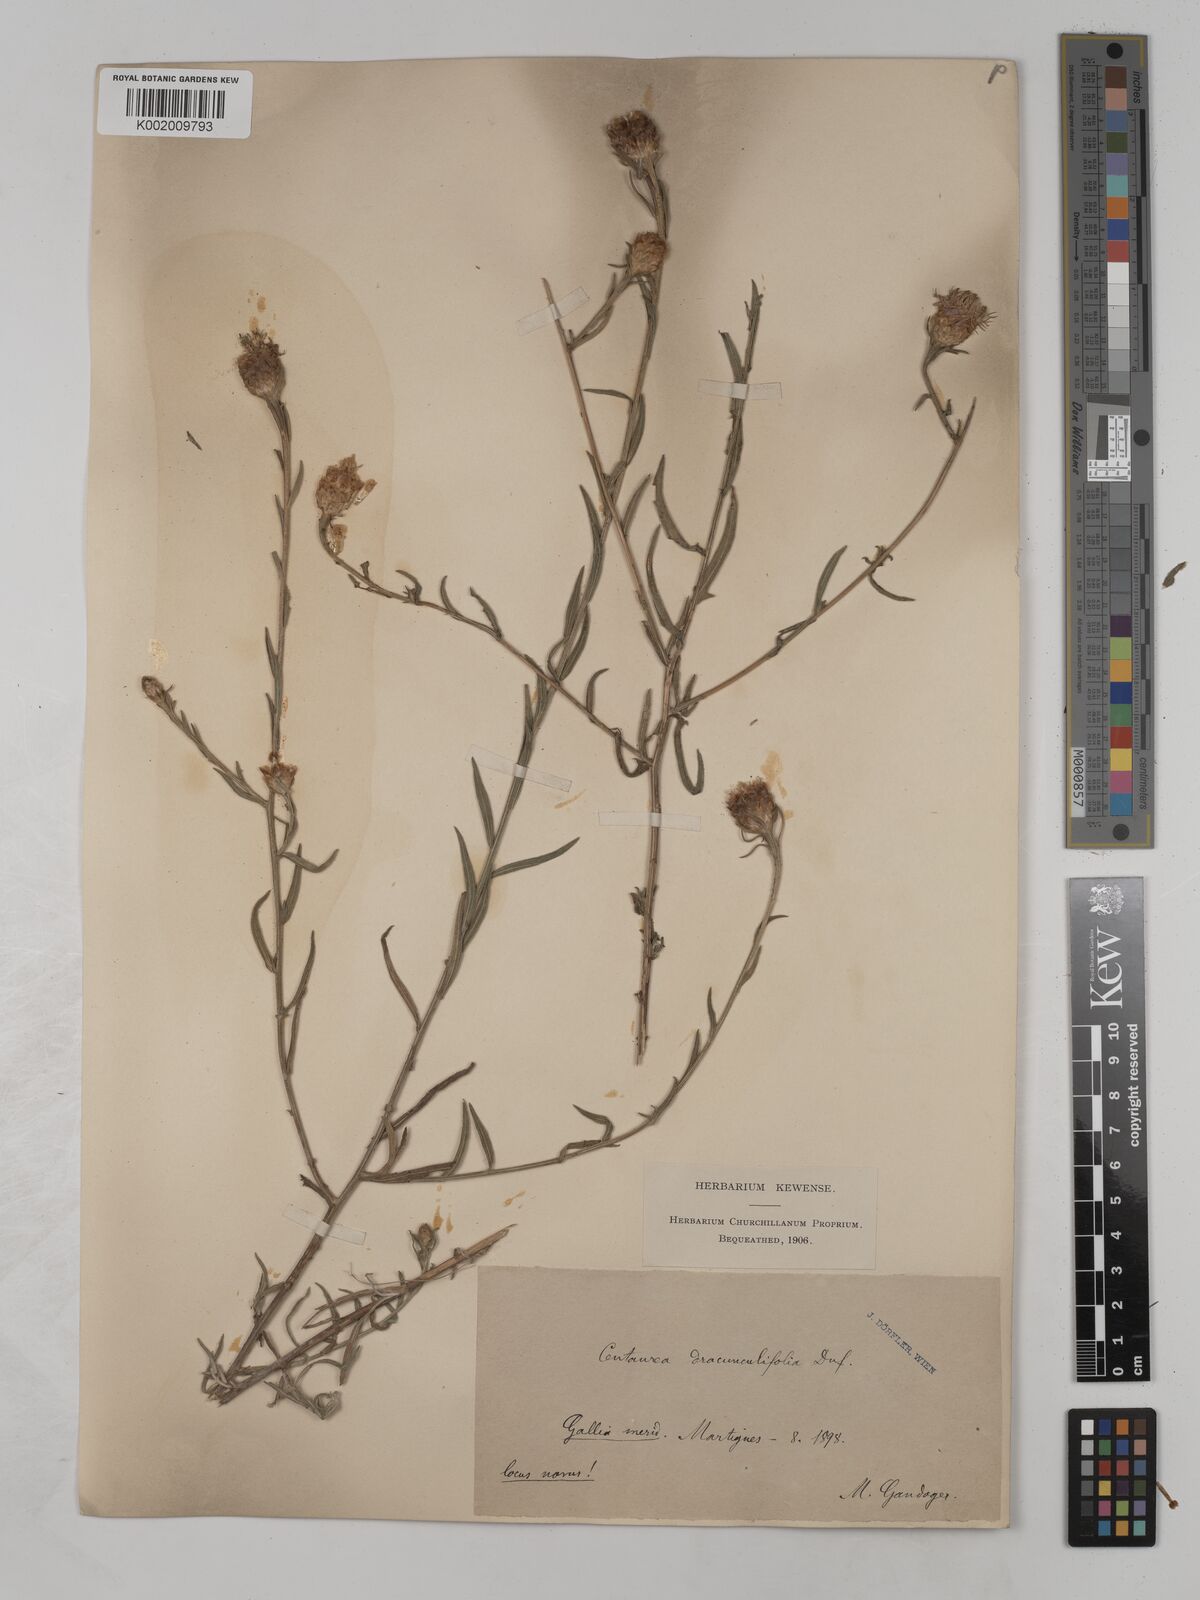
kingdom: Plantae
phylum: Tracheophyta
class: Magnoliopsida
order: Asterales
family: Asteraceae
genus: Centaurea
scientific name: Centaurea dracunculifolia
